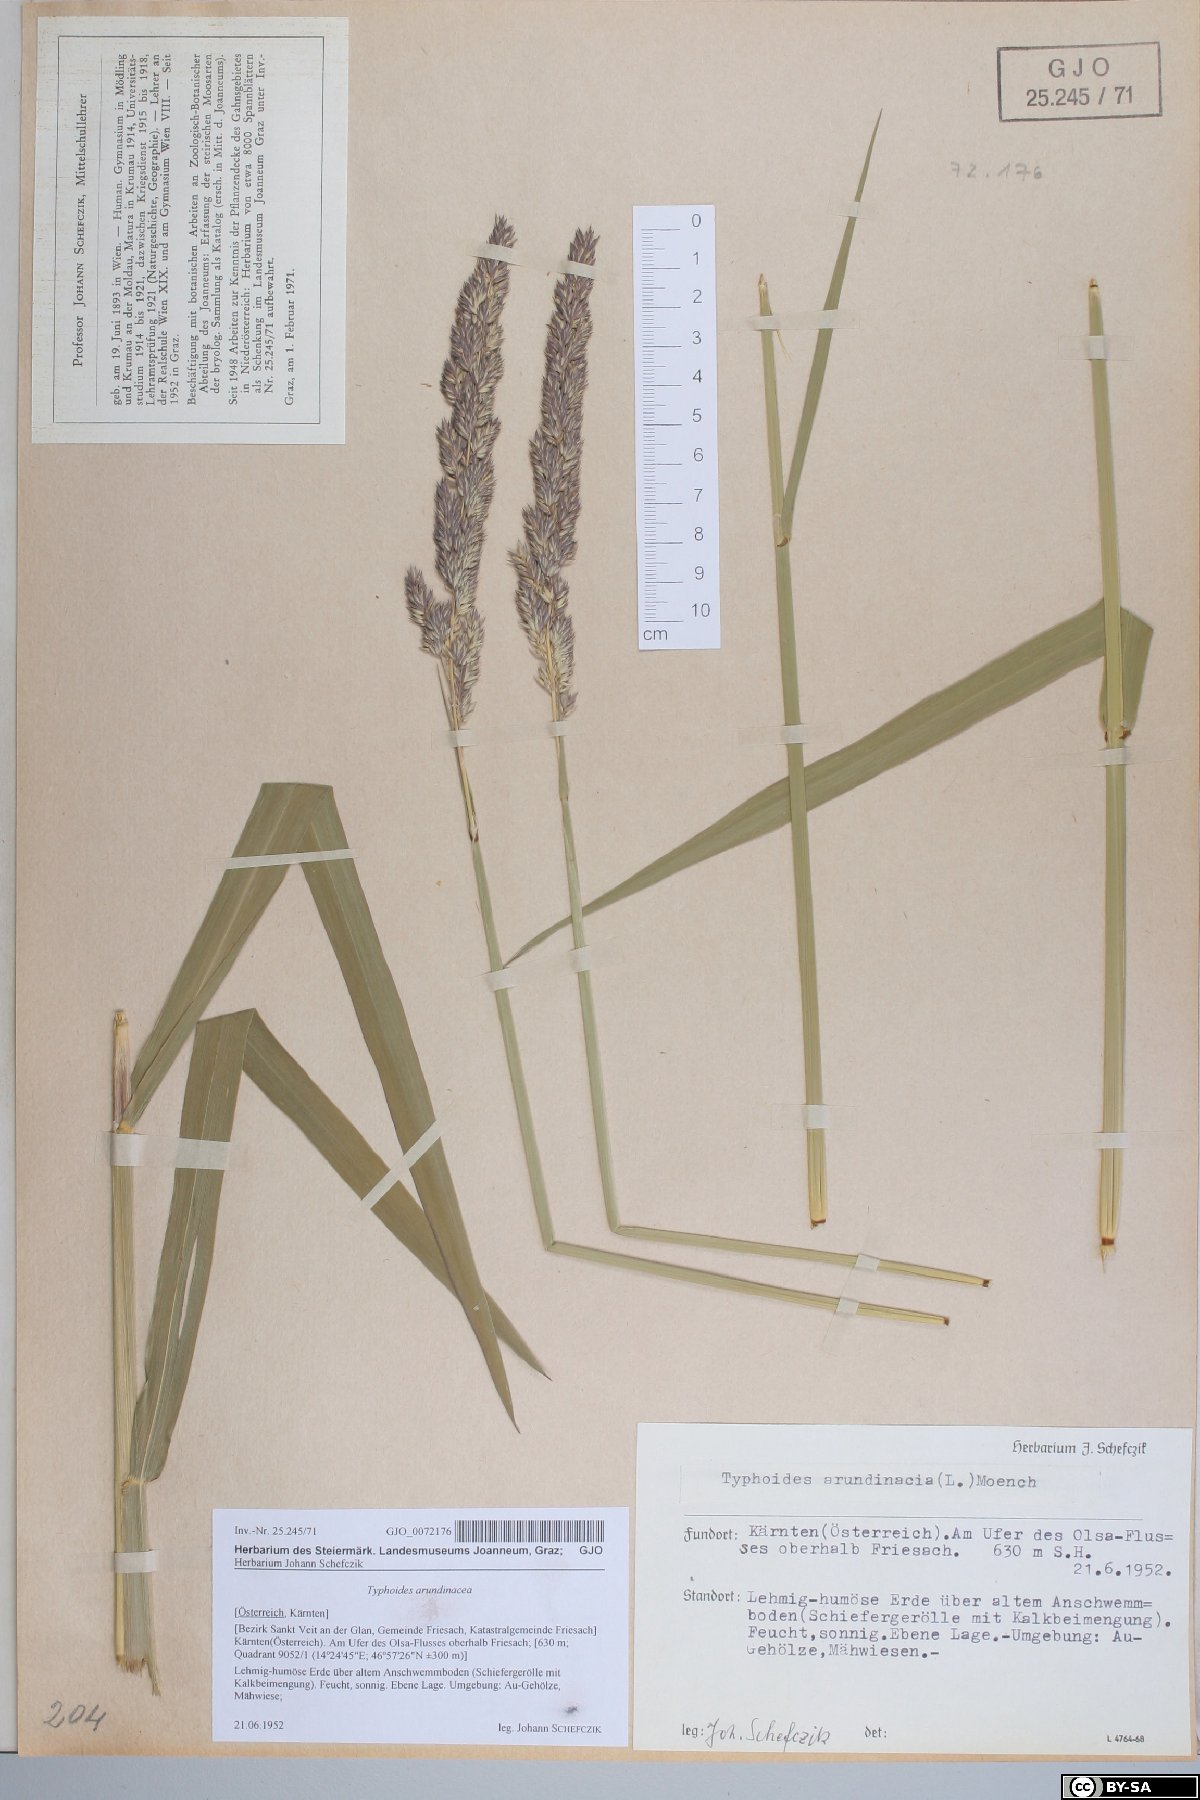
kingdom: Plantae
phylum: Tracheophyta
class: Liliopsida
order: Poales
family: Poaceae
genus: Phalaris
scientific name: Phalaris arundinacea
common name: Reed canary-grass
